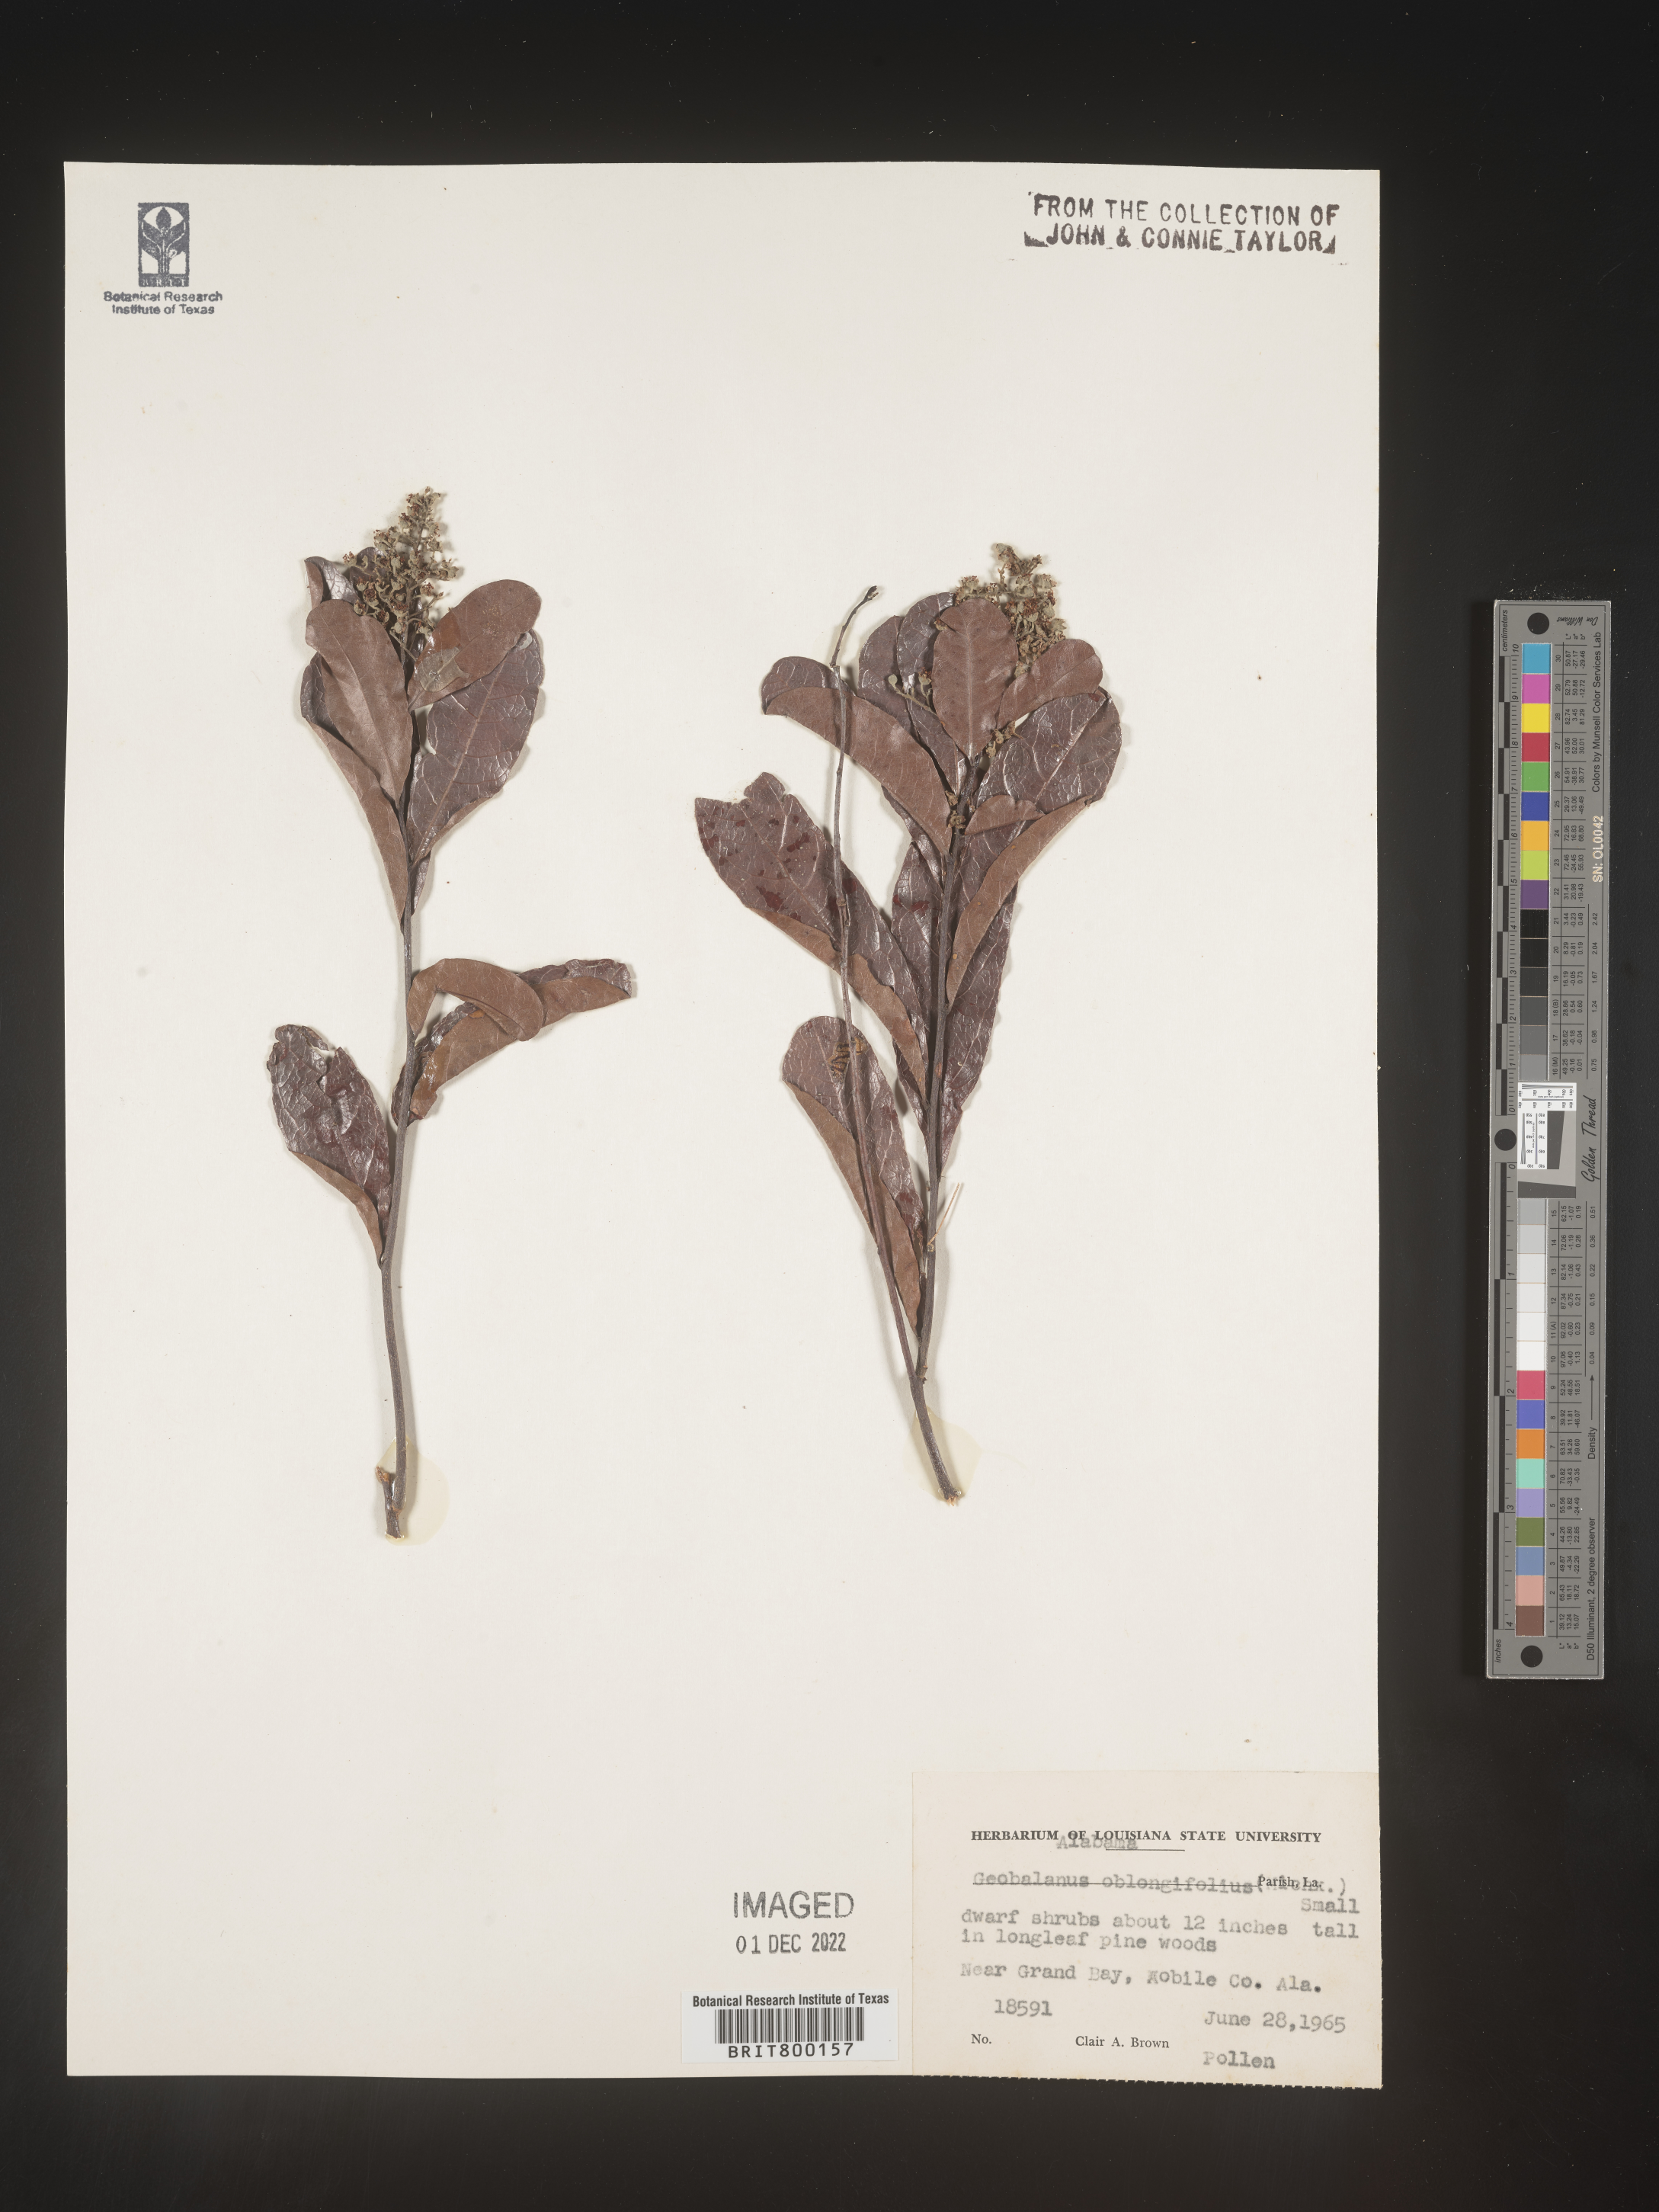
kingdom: Plantae
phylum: Tracheophyta
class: Magnoliopsida
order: Malpighiales
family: Chrysobalanaceae
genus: Geobalanus
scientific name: Geobalanus oblongifolius
